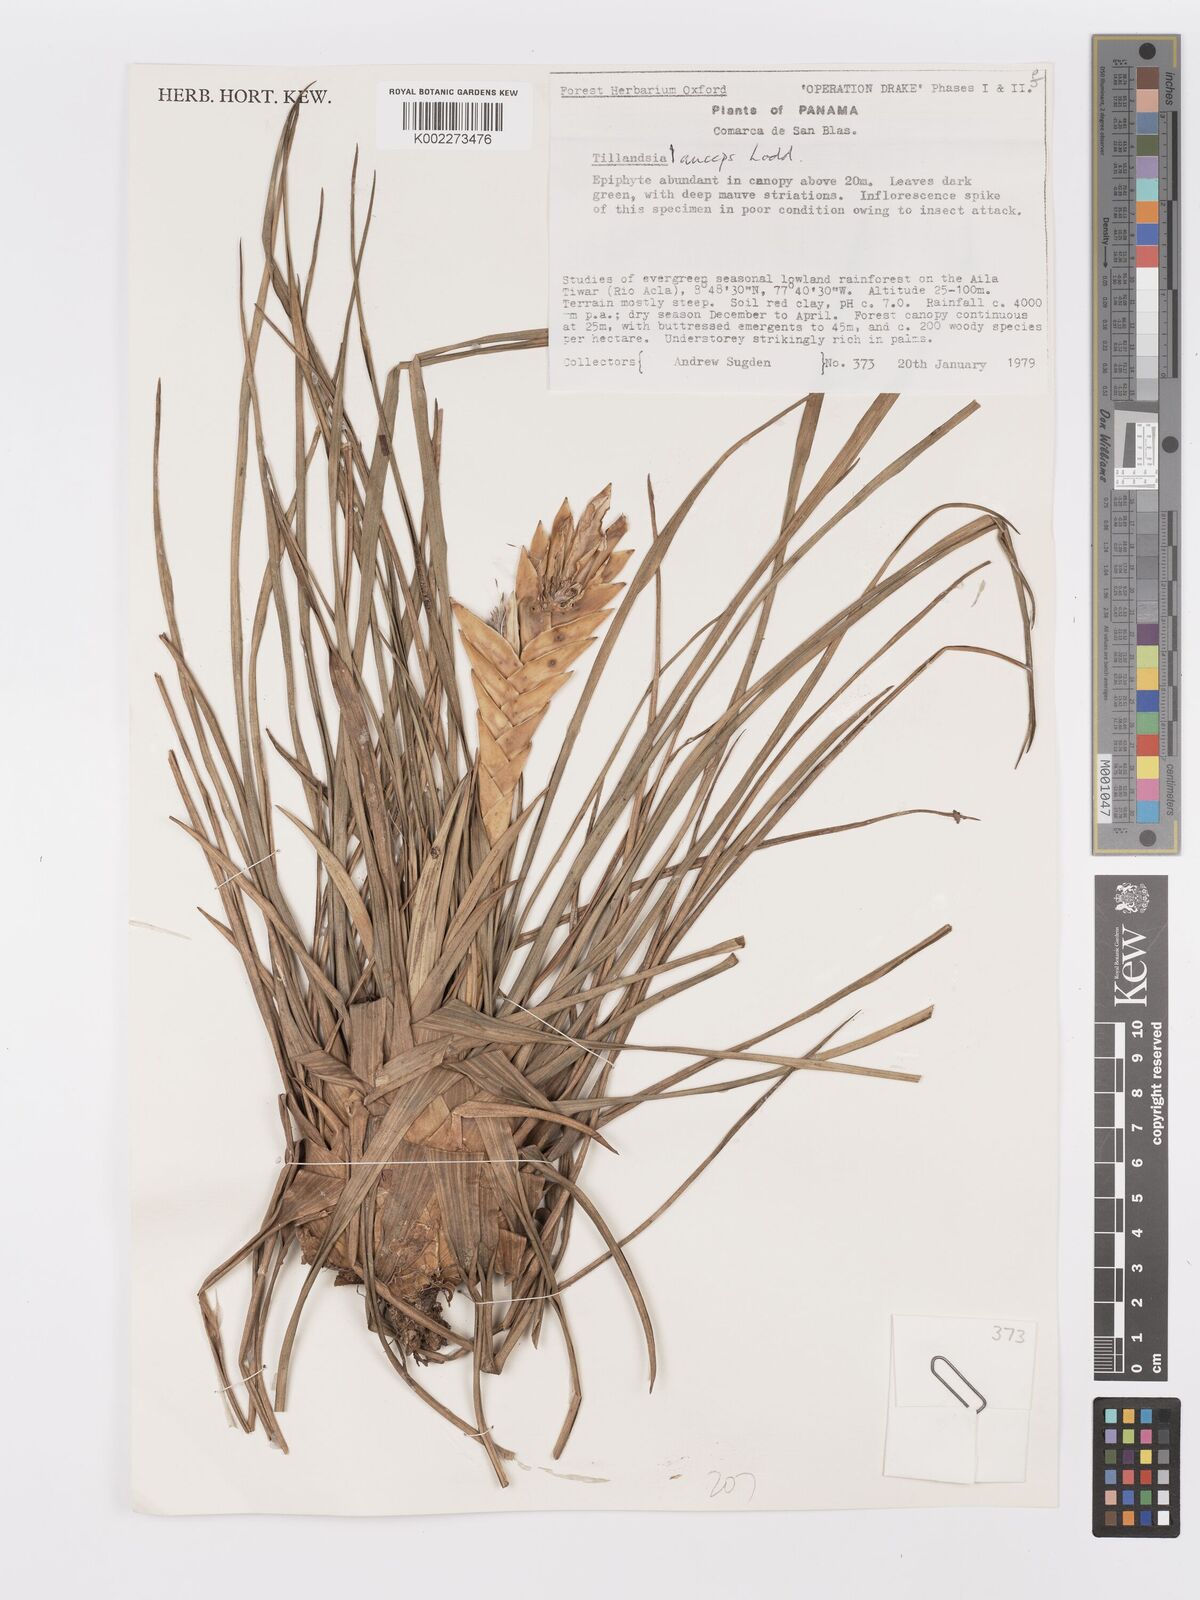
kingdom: Plantae
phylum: Tracheophyta
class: Liliopsida
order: Poales
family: Bromeliaceae
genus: Wallisia
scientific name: Wallisia anceps
